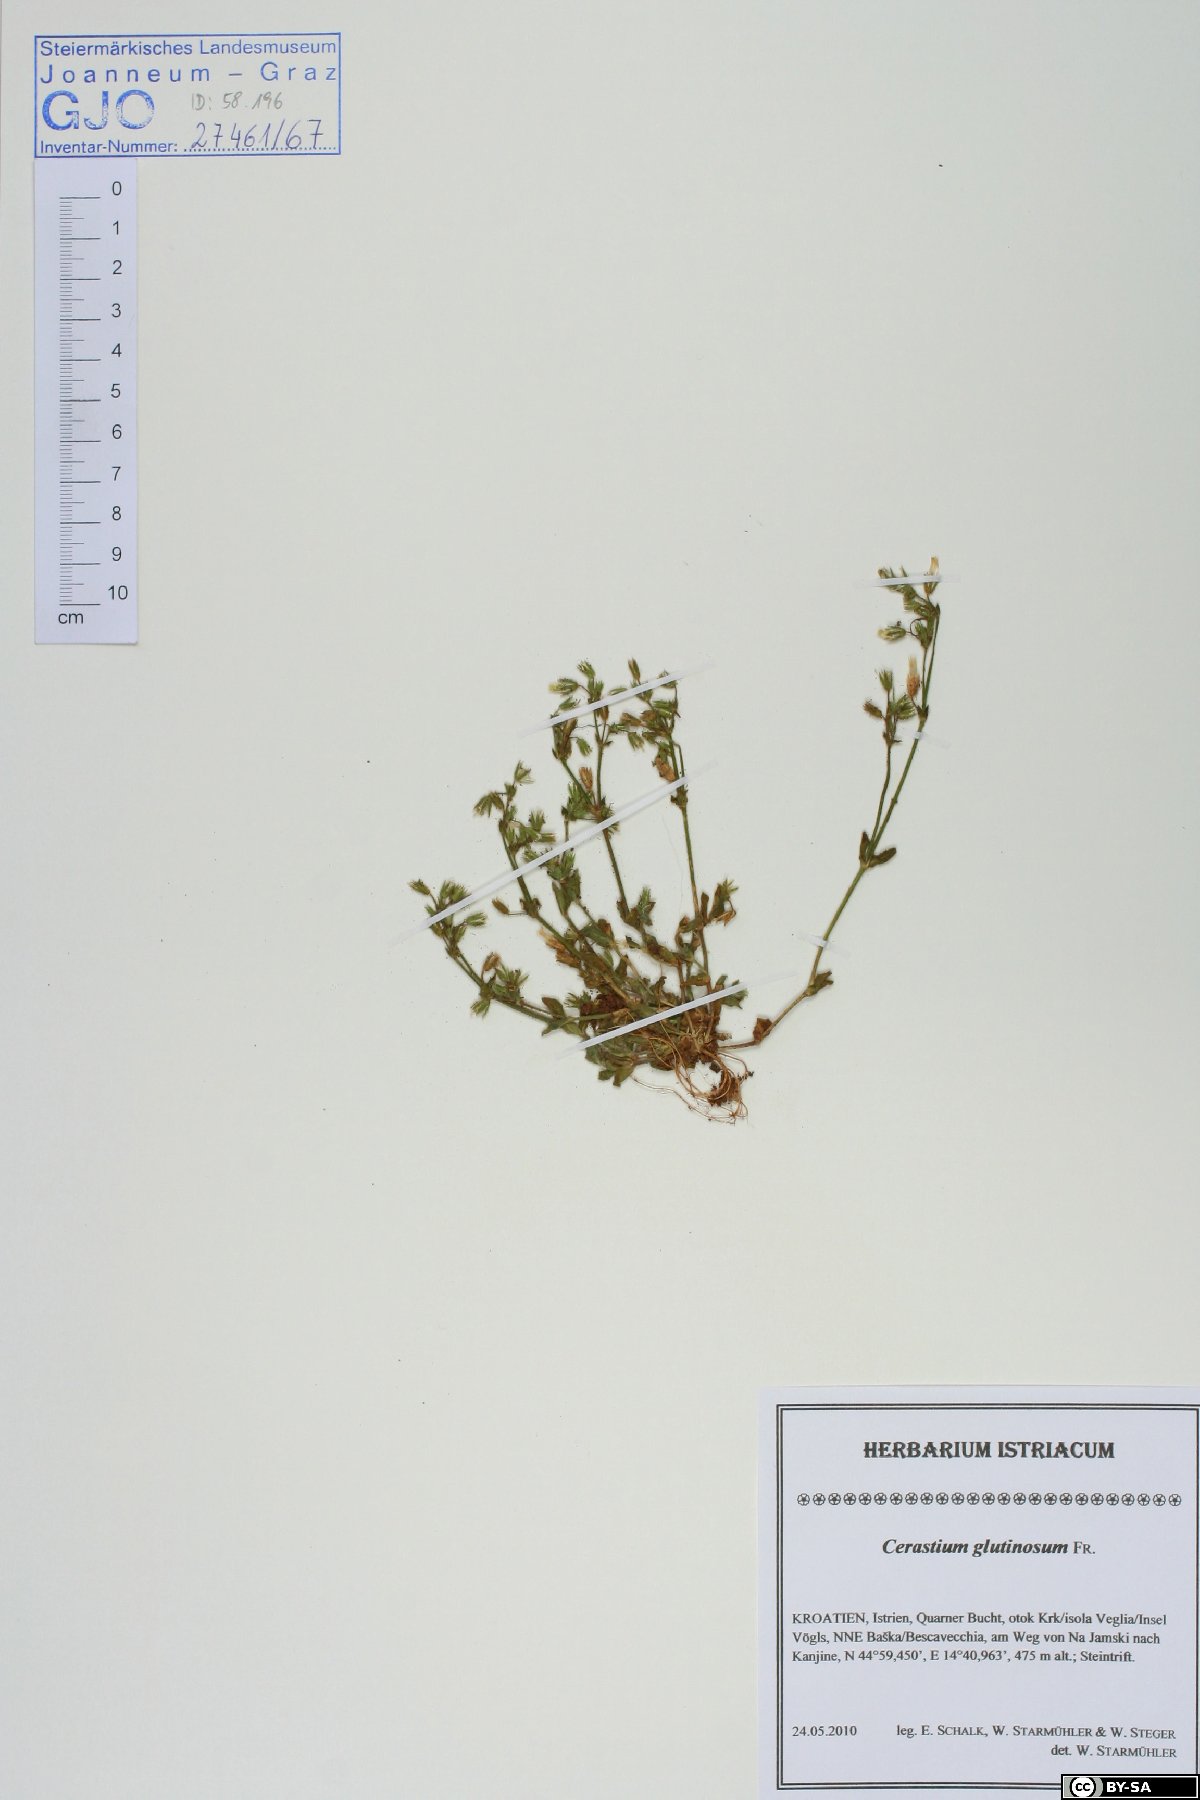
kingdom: Plantae
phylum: Tracheophyta
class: Magnoliopsida
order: Caryophyllales
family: Caryophyllaceae
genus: Cerastium
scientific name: Cerastium glutinosum
